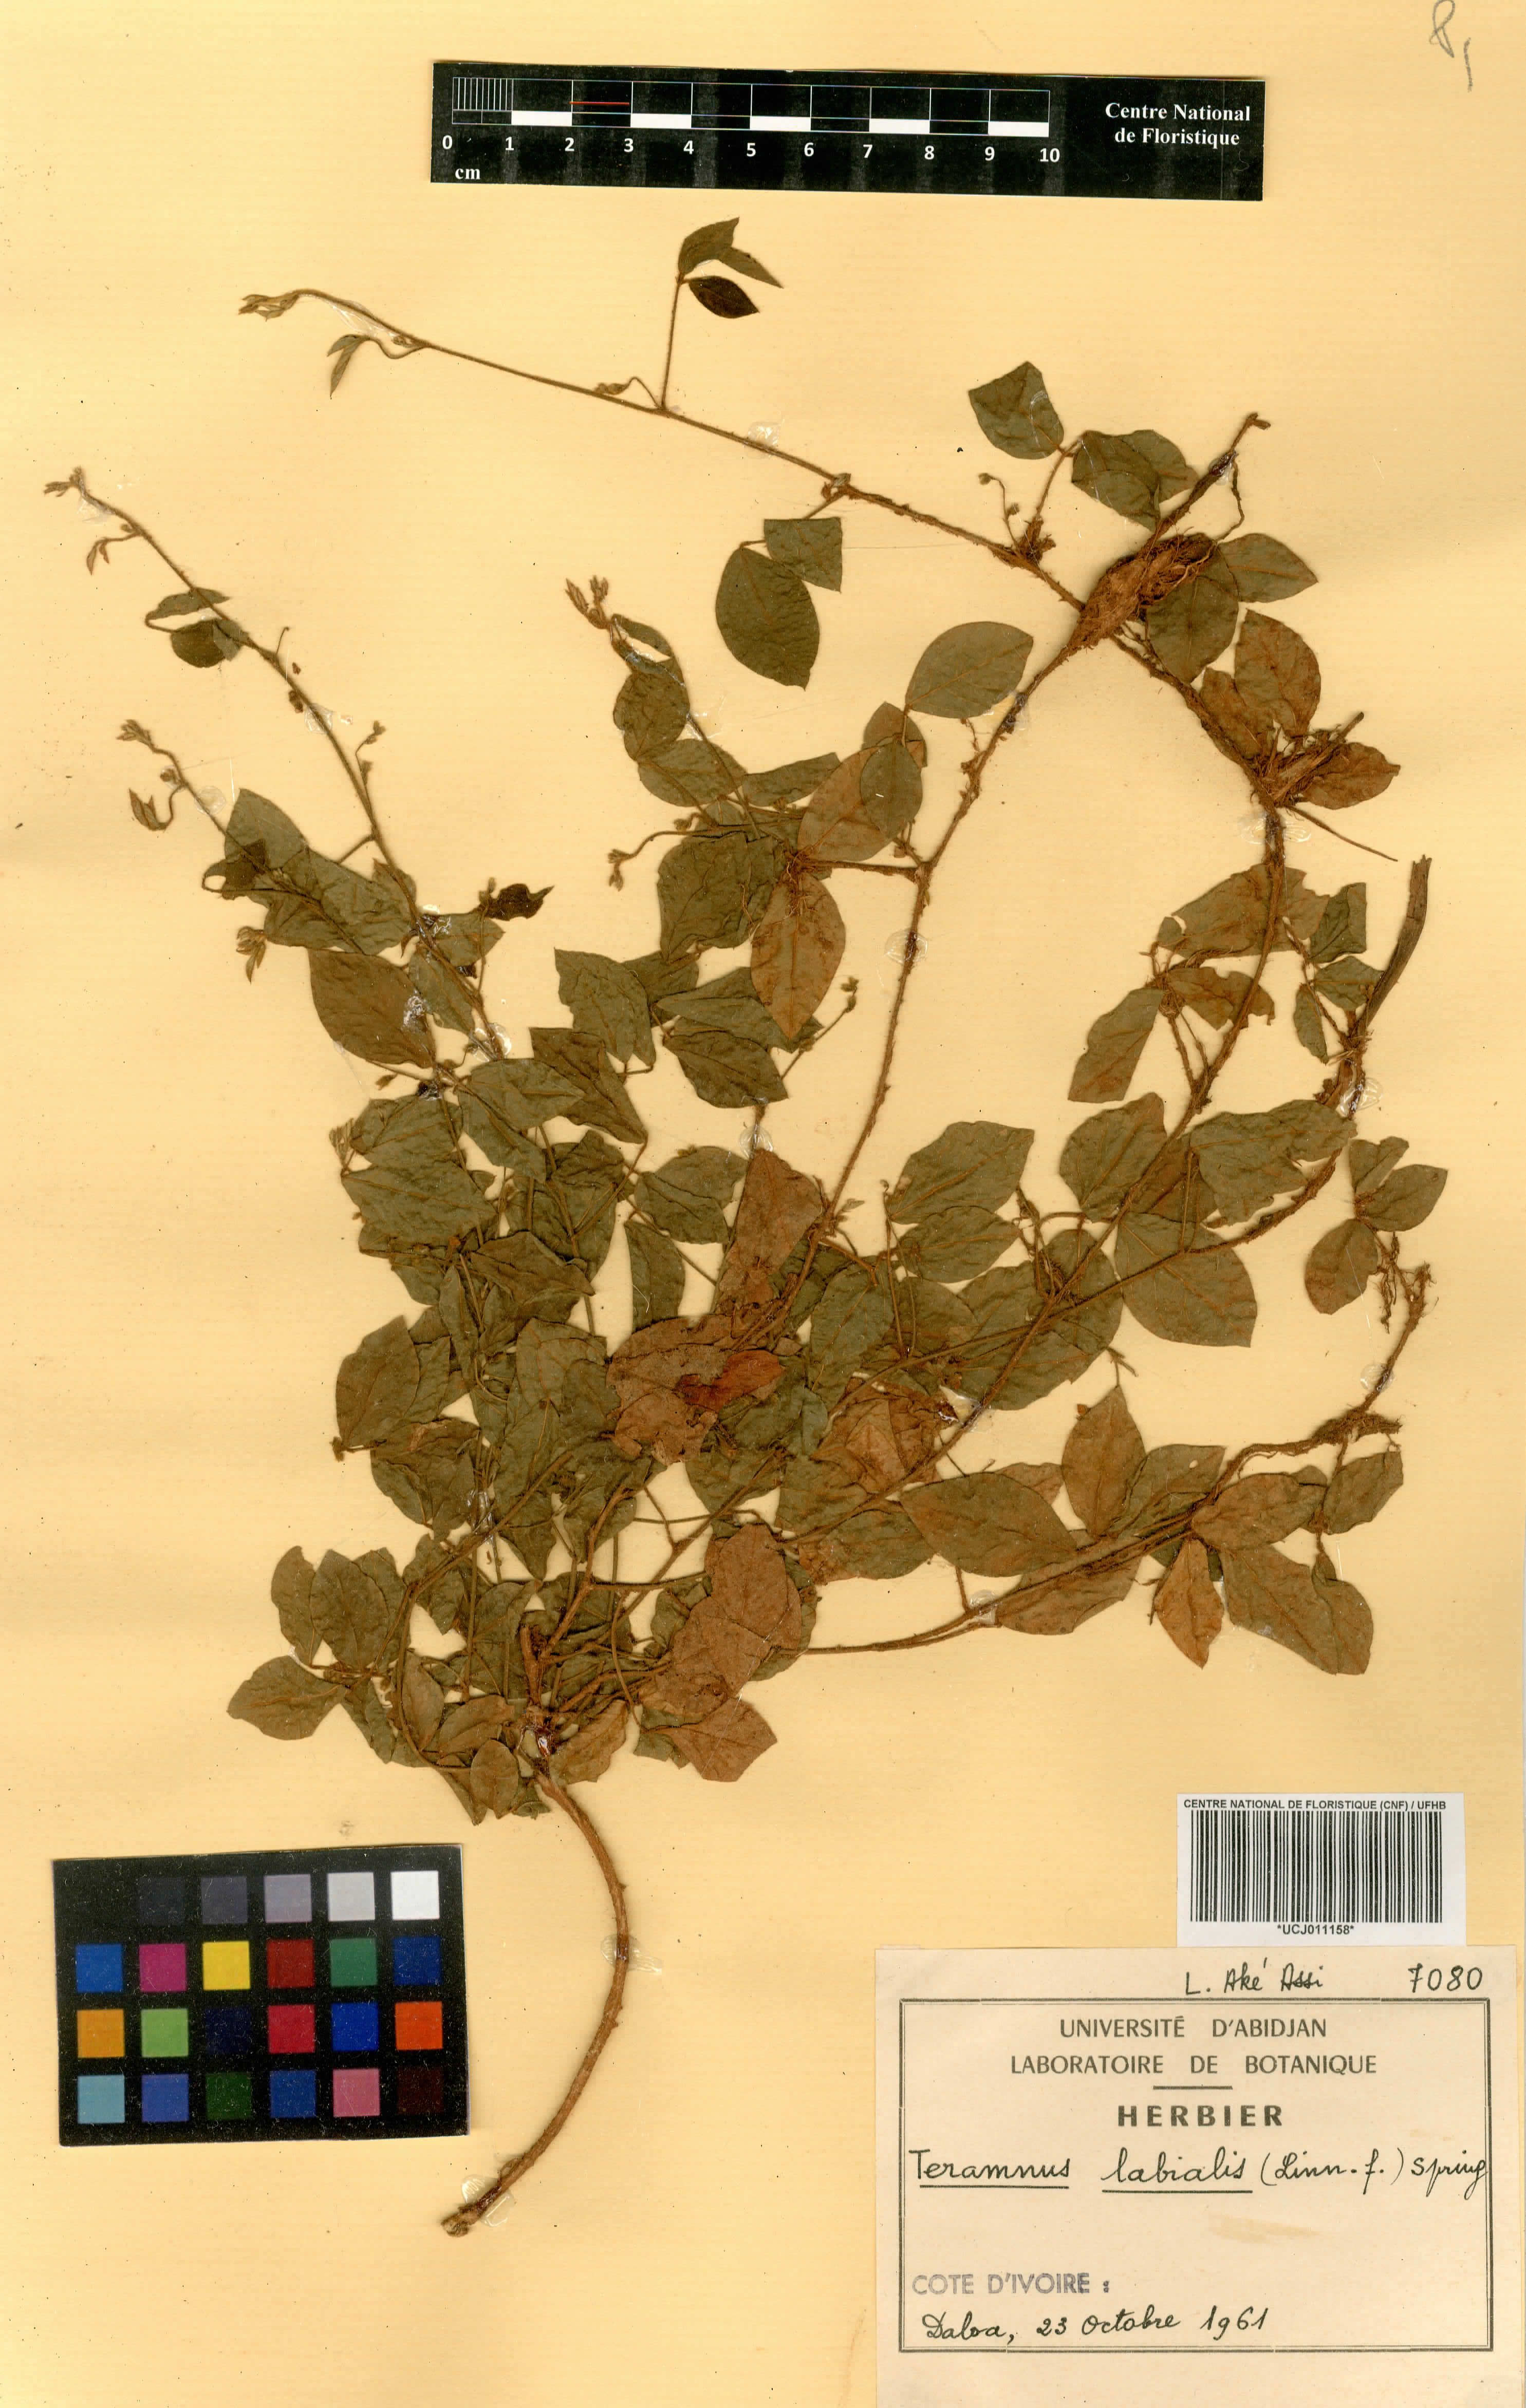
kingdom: Plantae
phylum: Tracheophyta
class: Magnoliopsida
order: Fabales
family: Fabaceae
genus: Teramnus
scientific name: Teramnus labialis
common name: Blue wiss
